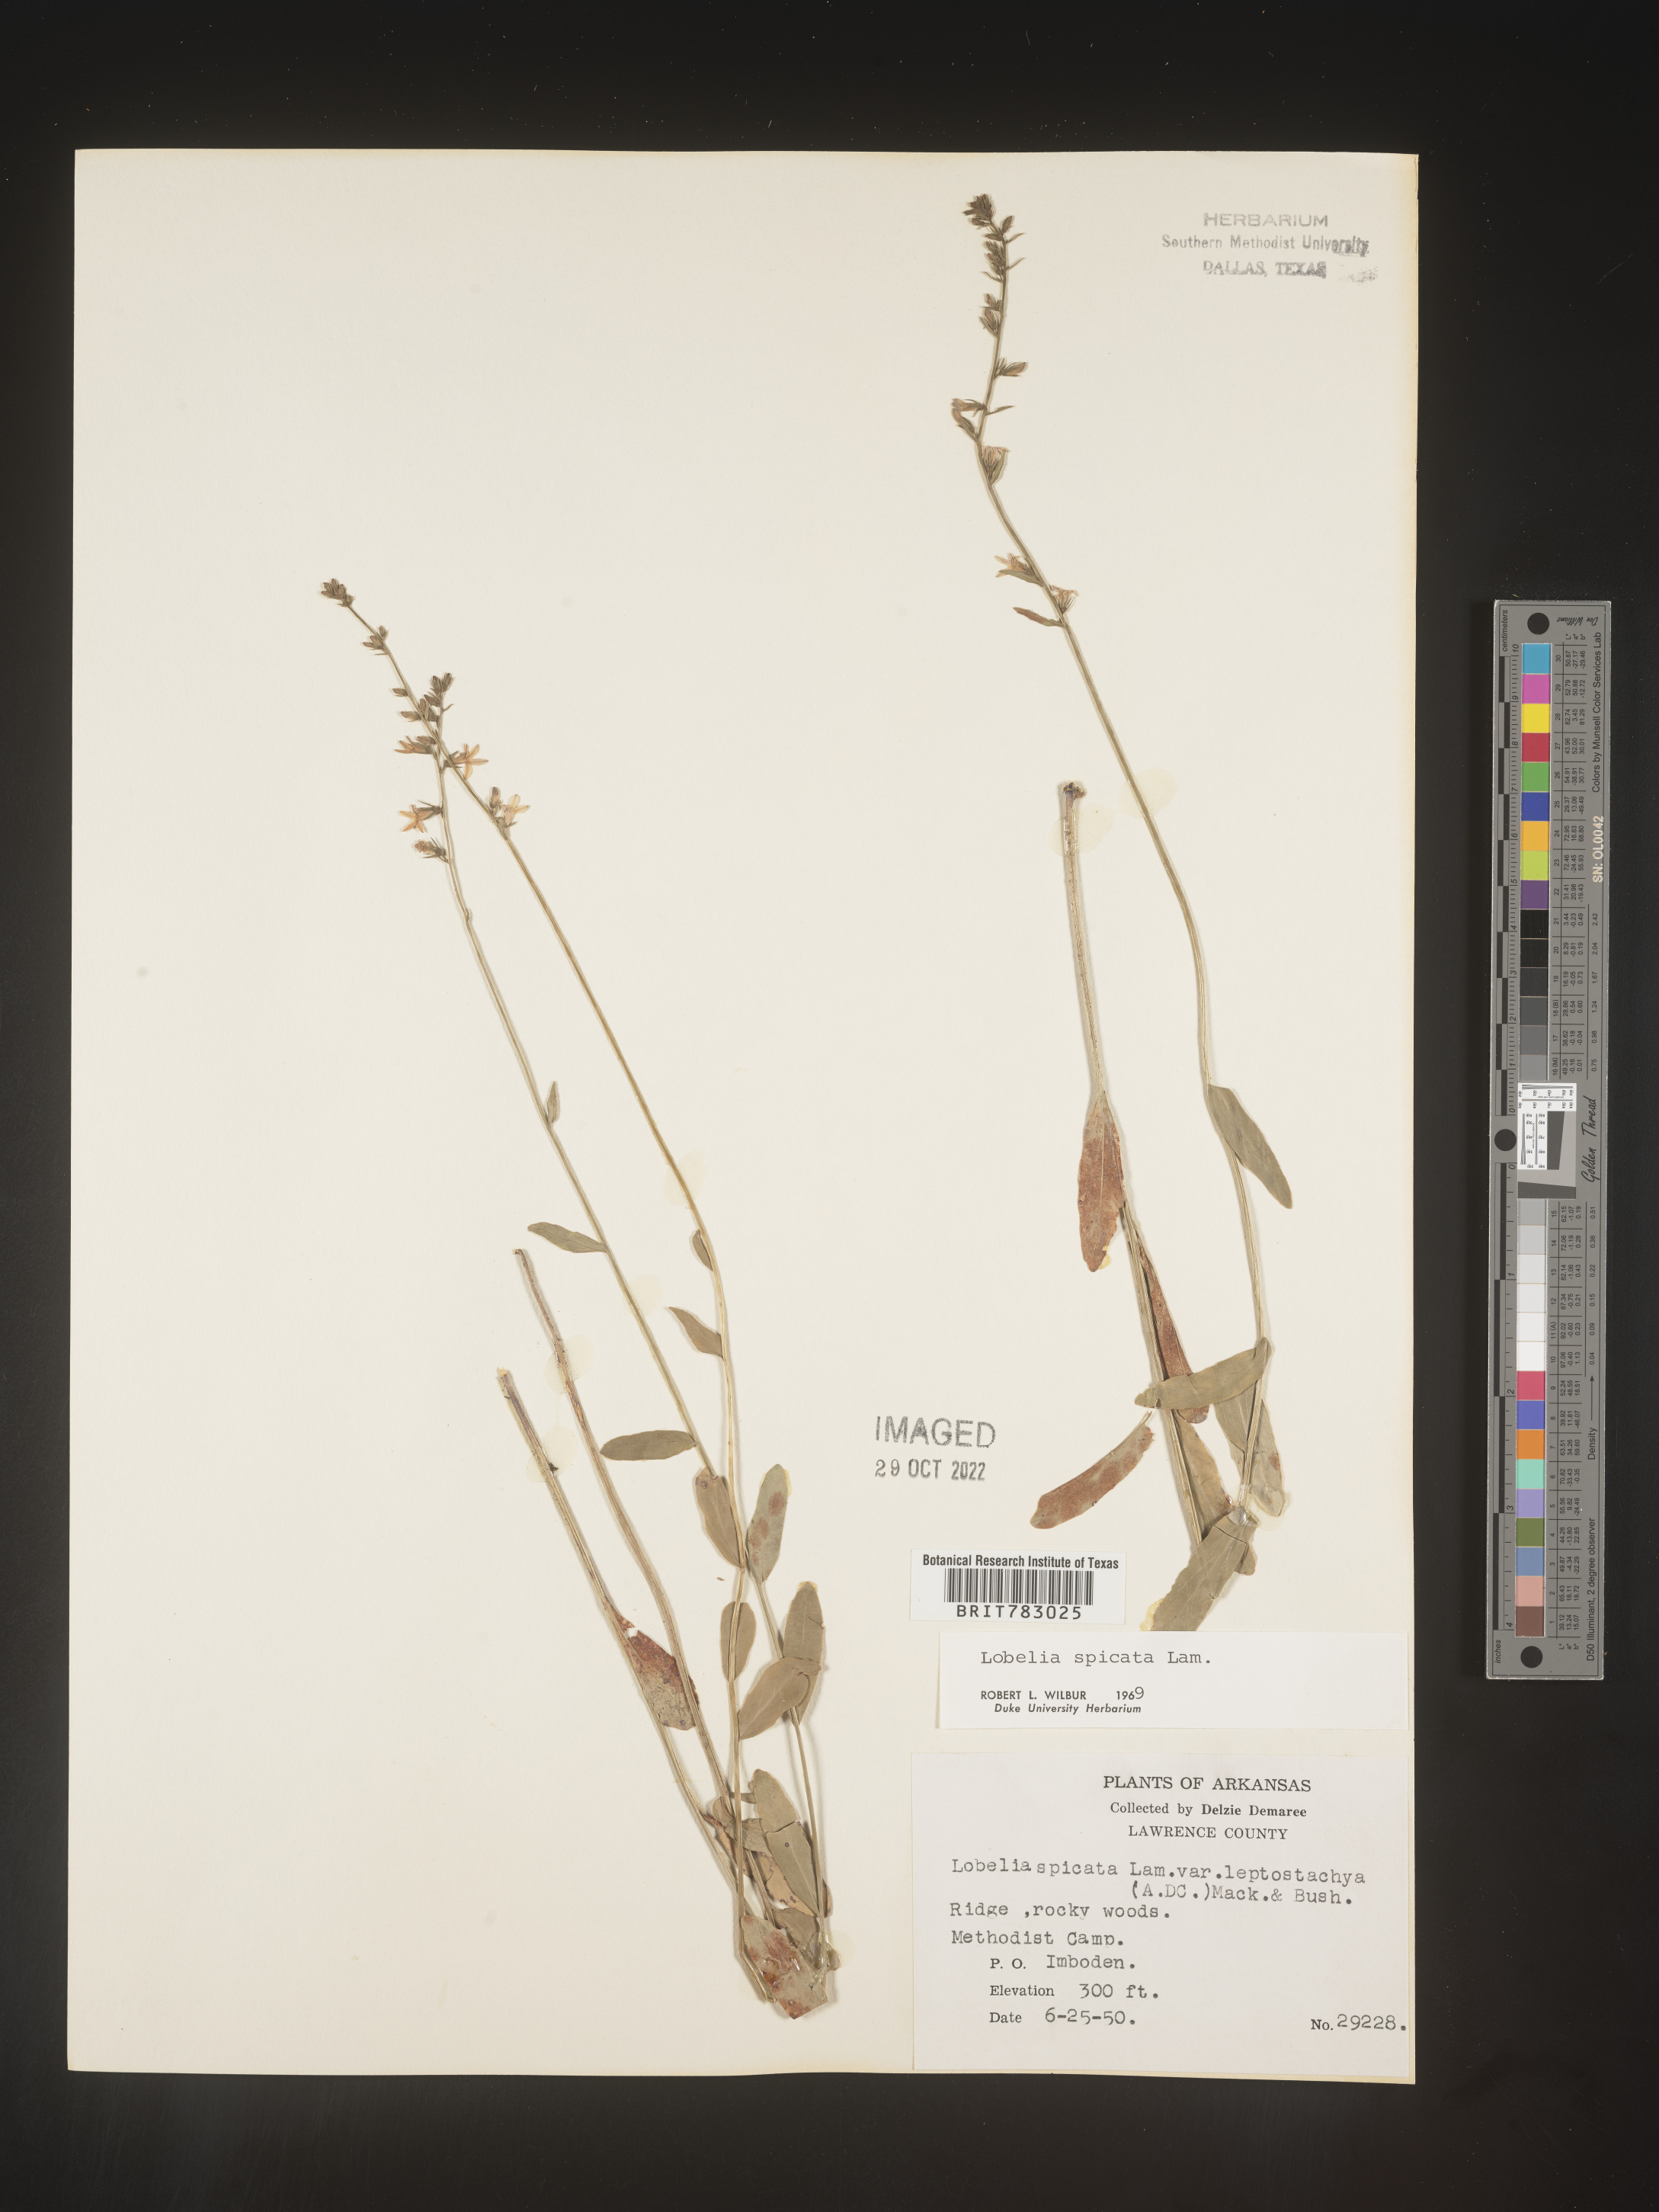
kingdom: Plantae
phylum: Tracheophyta
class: Magnoliopsida
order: Asterales
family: Campanulaceae
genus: Lobelia
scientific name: Lobelia spicata
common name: Pale-spike lobelia
